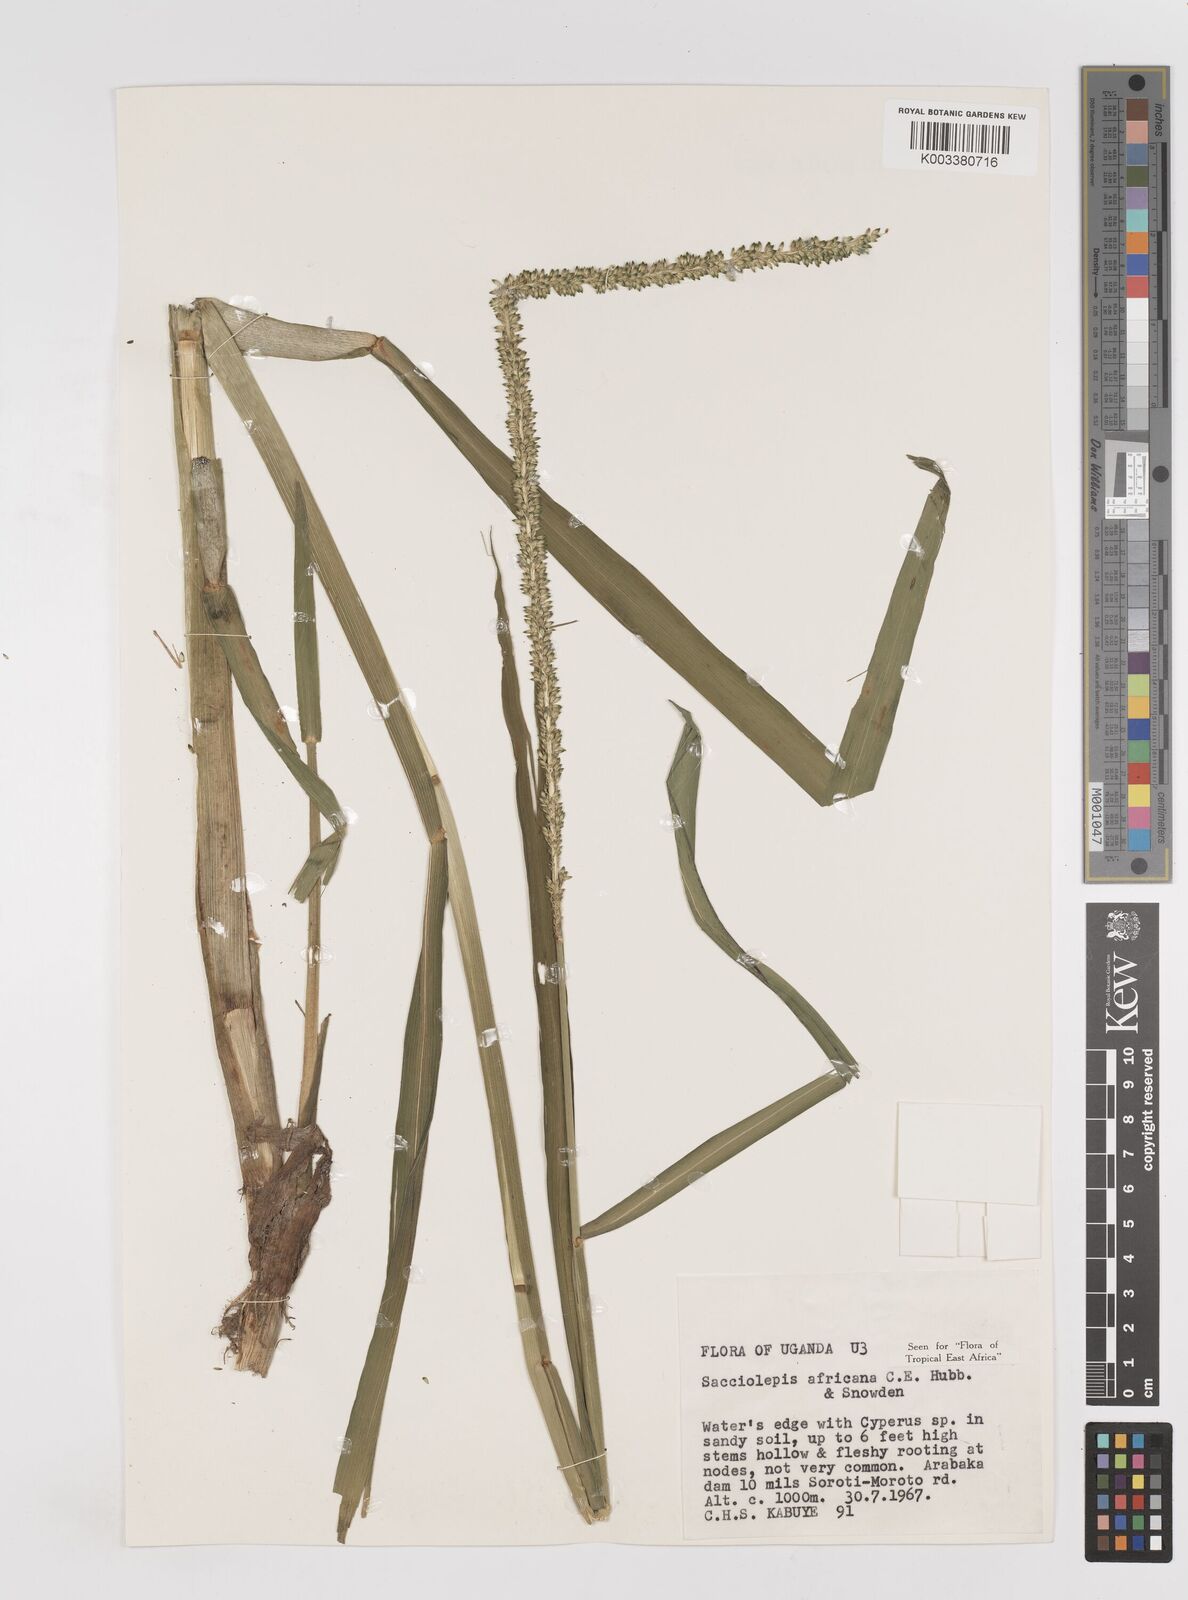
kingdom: Plantae
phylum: Tracheophyta
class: Liliopsida
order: Poales
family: Poaceae
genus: Sacciolepis
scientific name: Sacciolepis africana
